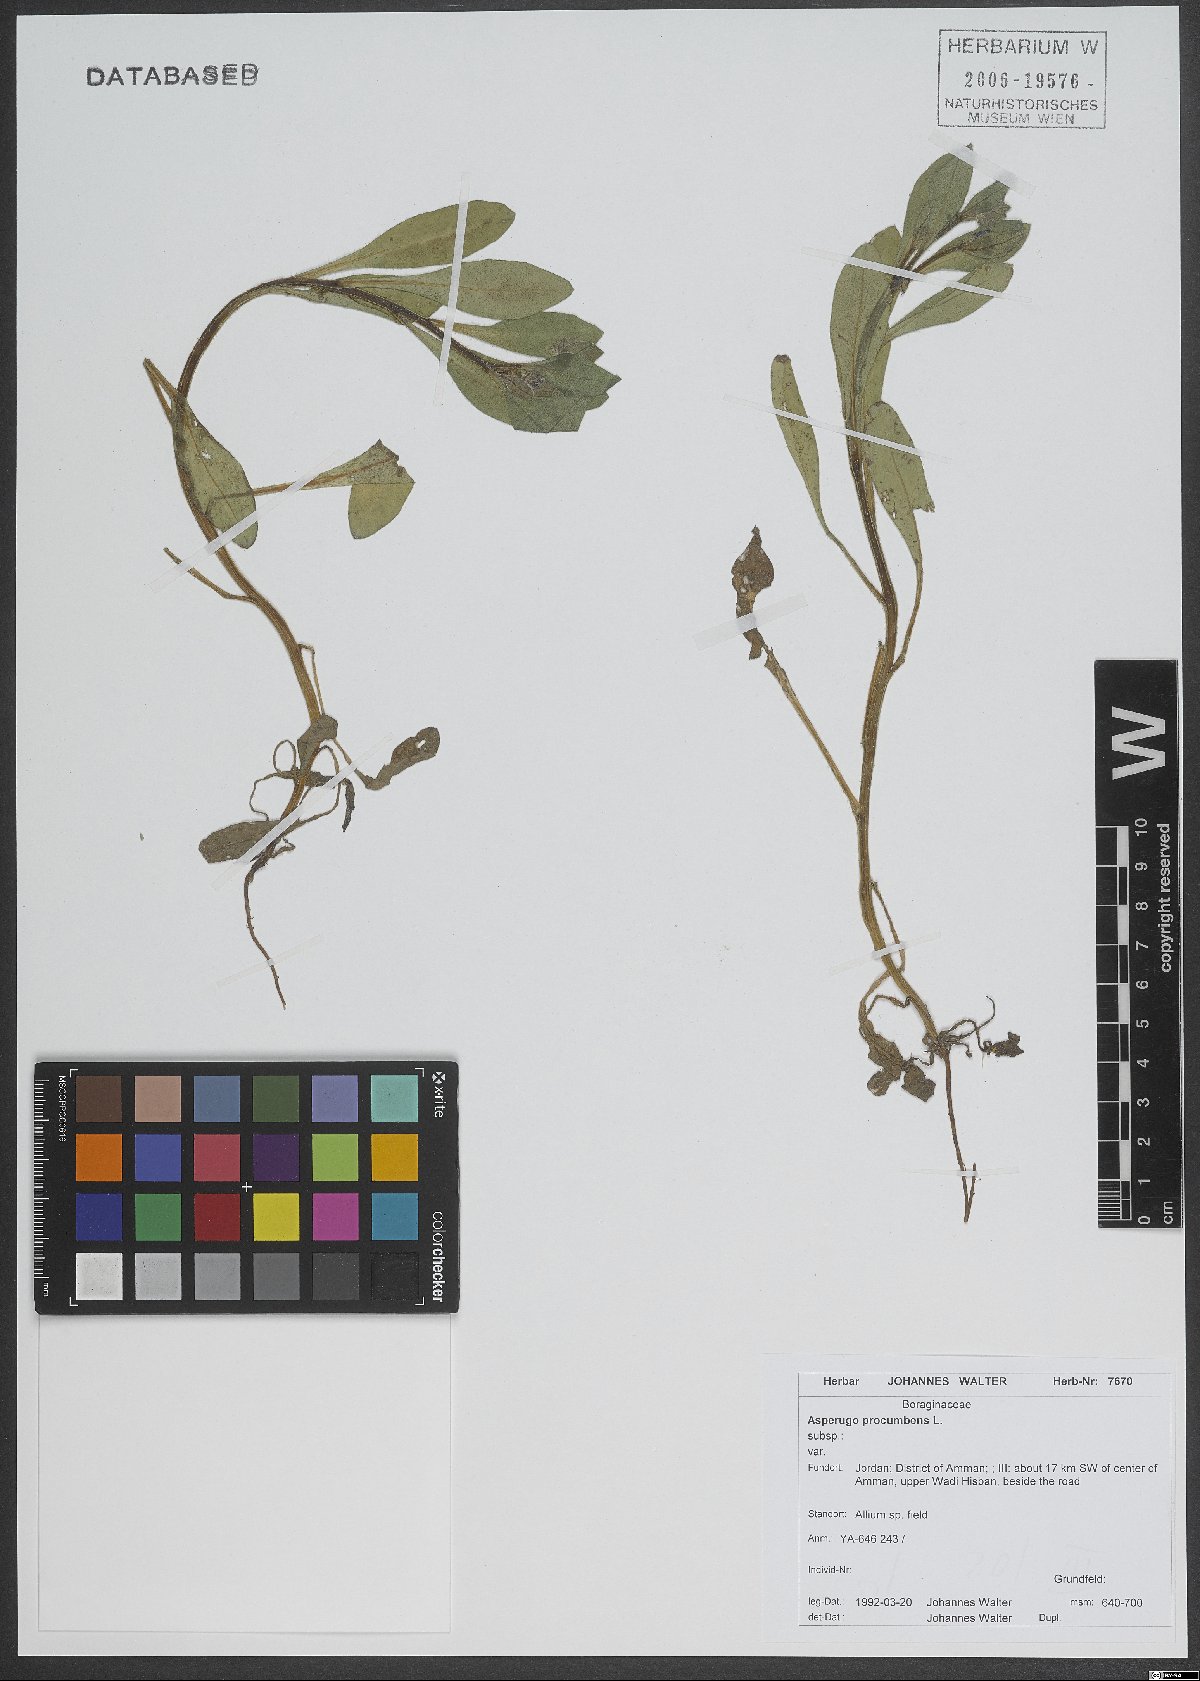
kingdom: Plantae
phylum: Tracheophyta
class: Magnoliopsida
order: Boraginales
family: Boraginaceae
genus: Asperugo
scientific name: Asperugo procumbens
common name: Madwort
